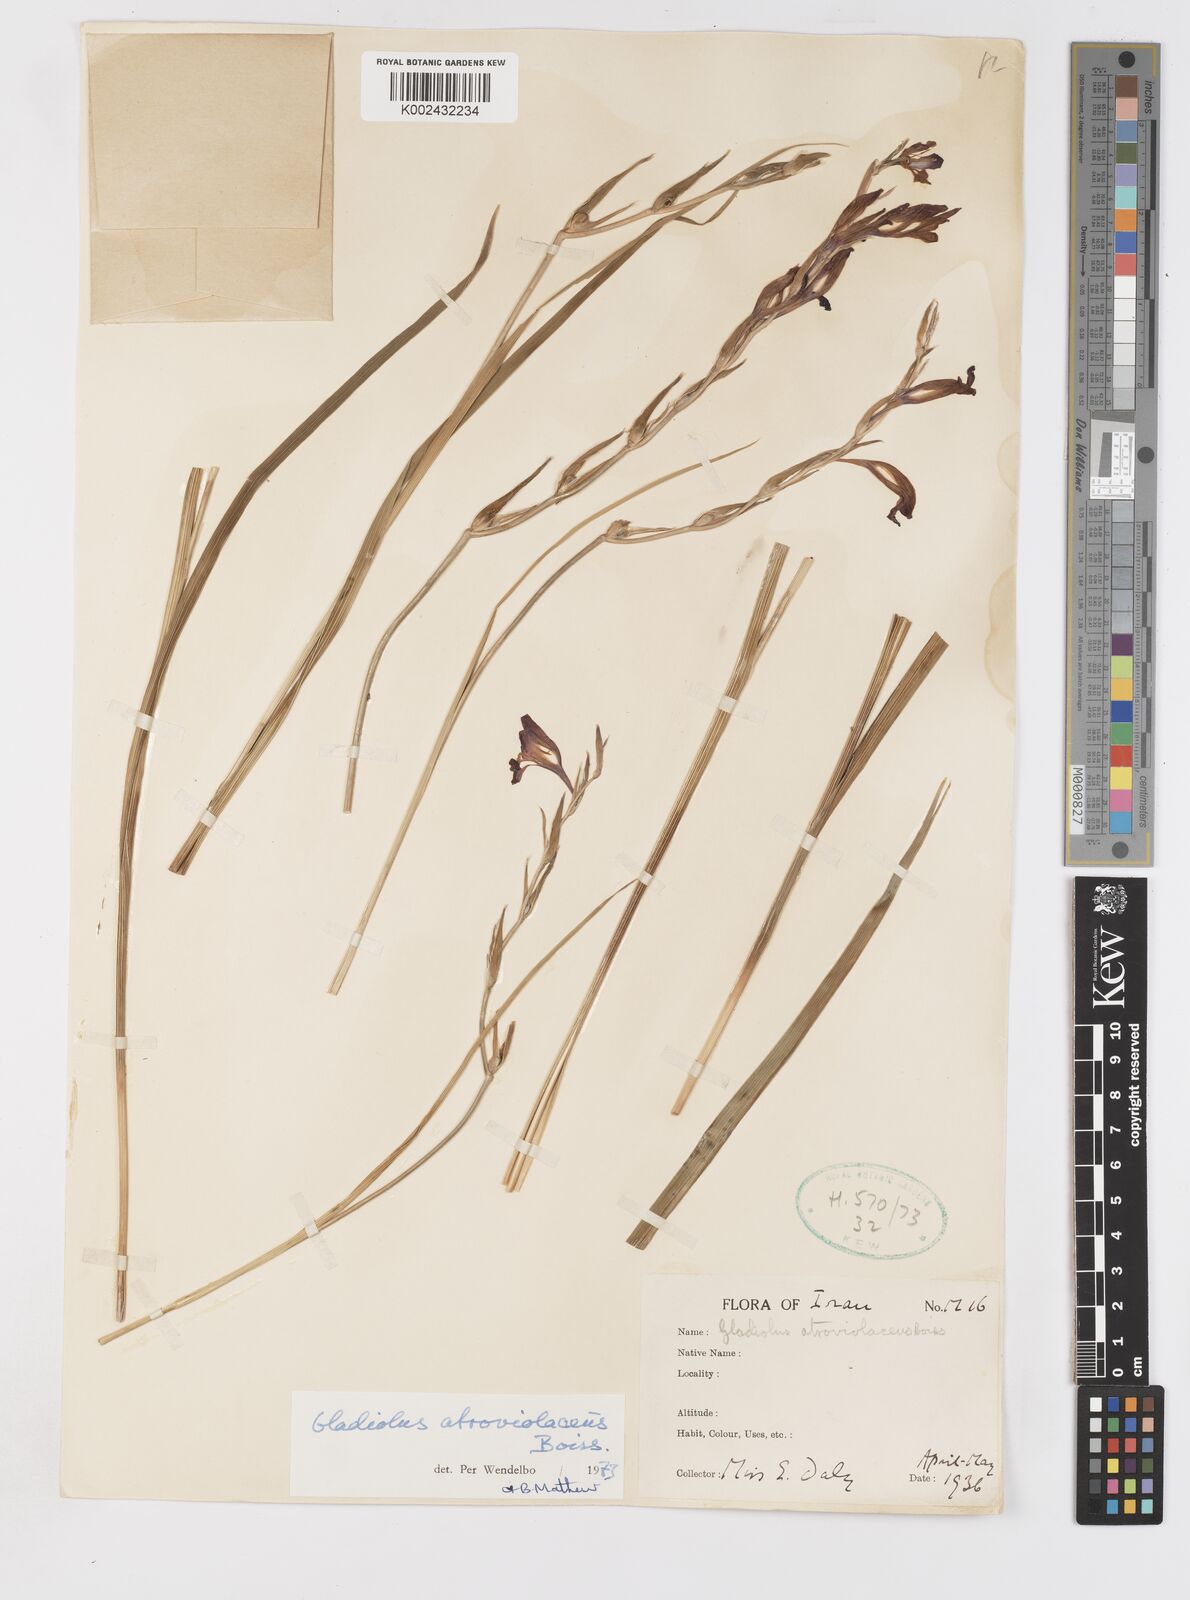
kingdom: Plantae
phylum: Tracheophyta
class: Liliopsida
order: Asparagales
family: Iridaceae
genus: Gladiolus
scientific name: Gladiolus atroviolaceus
